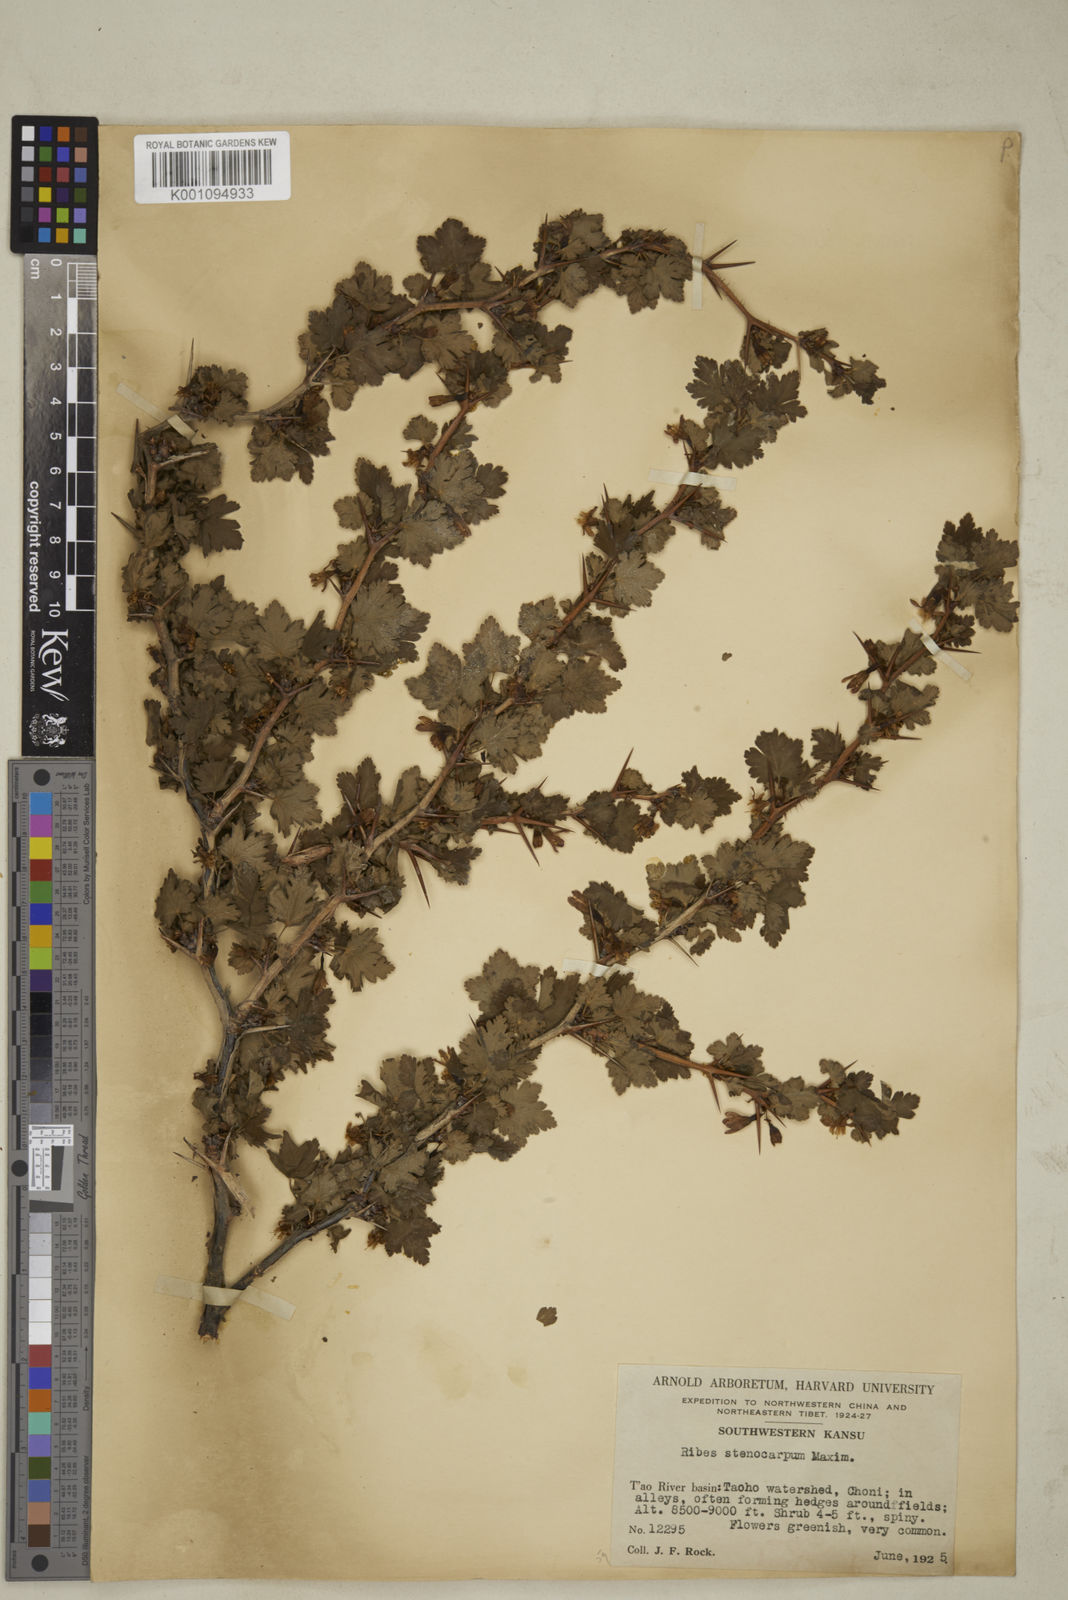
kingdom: Plantae
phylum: Tracheophyta
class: Magnoliopsida
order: Saxifragales
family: Grossulariaceae
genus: Ribes
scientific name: Ribes stenocarpum
